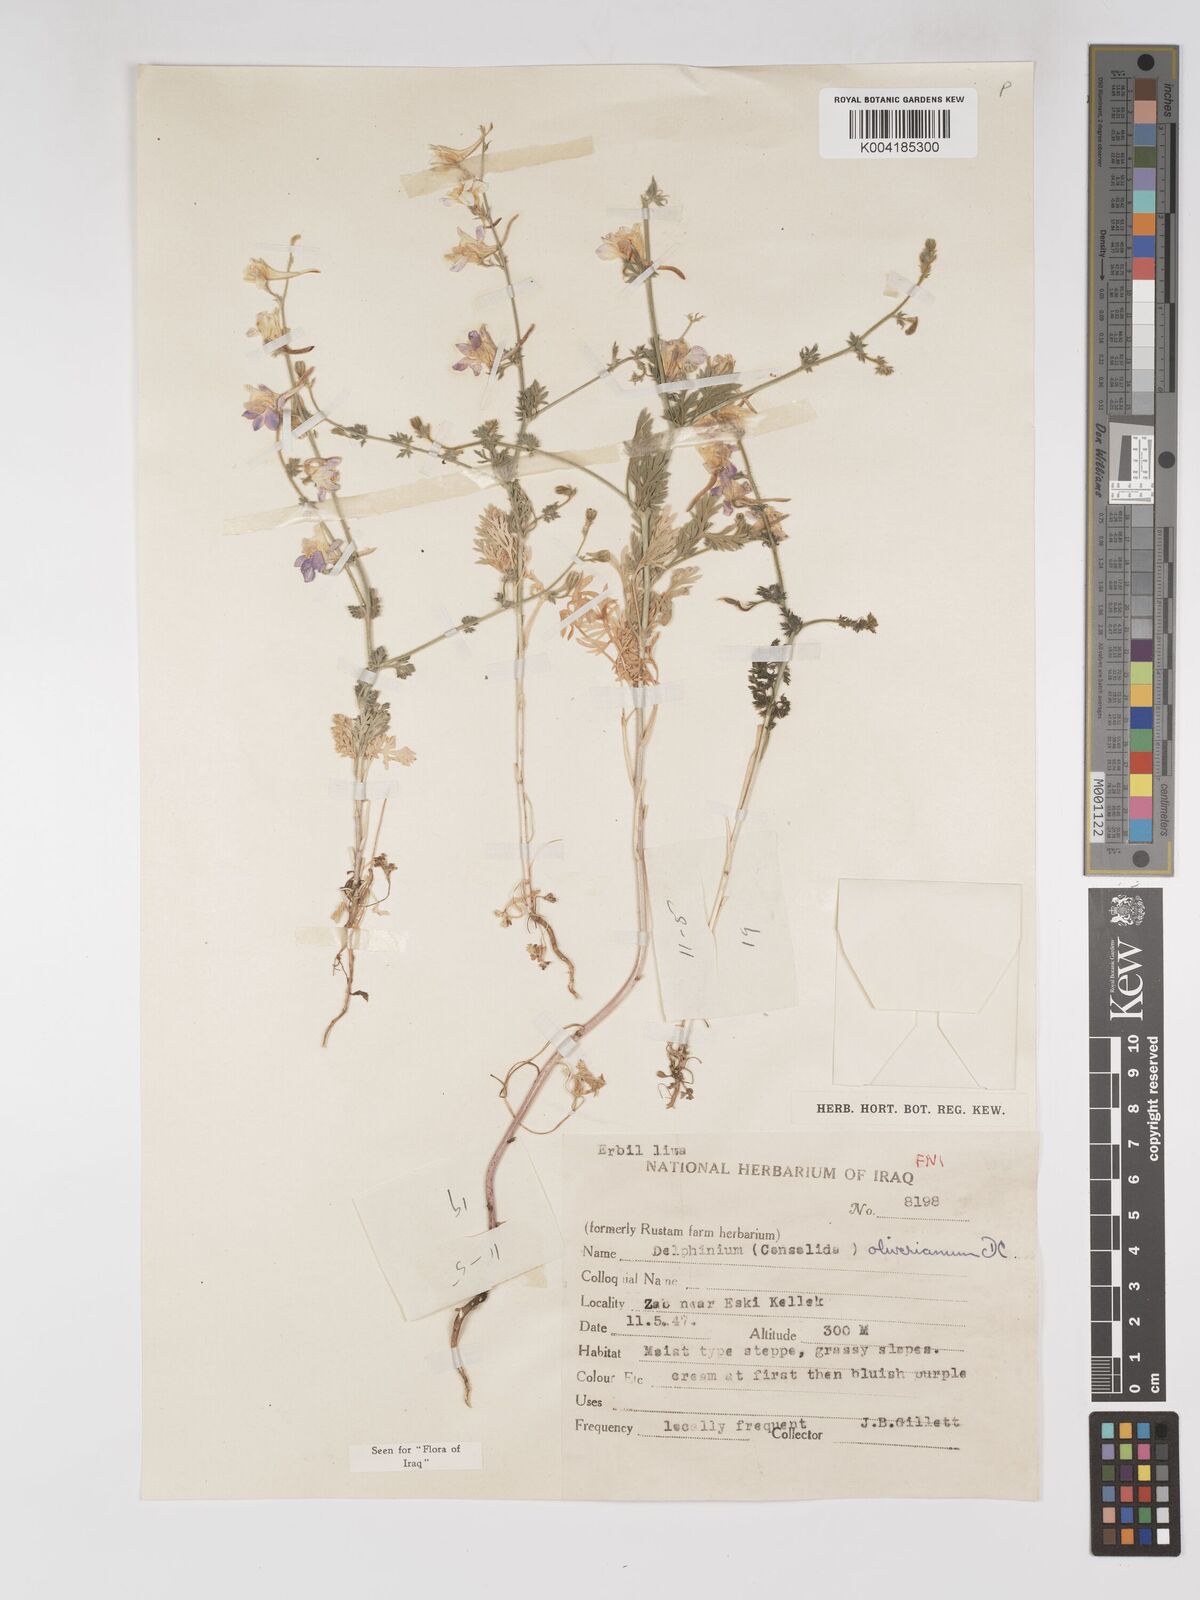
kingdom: Plantae
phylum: Tracheophyta
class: Magnoliopsida
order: Ranunculales
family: Ranunculaceae
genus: Delphinium
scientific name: Delphinium oliverianum
